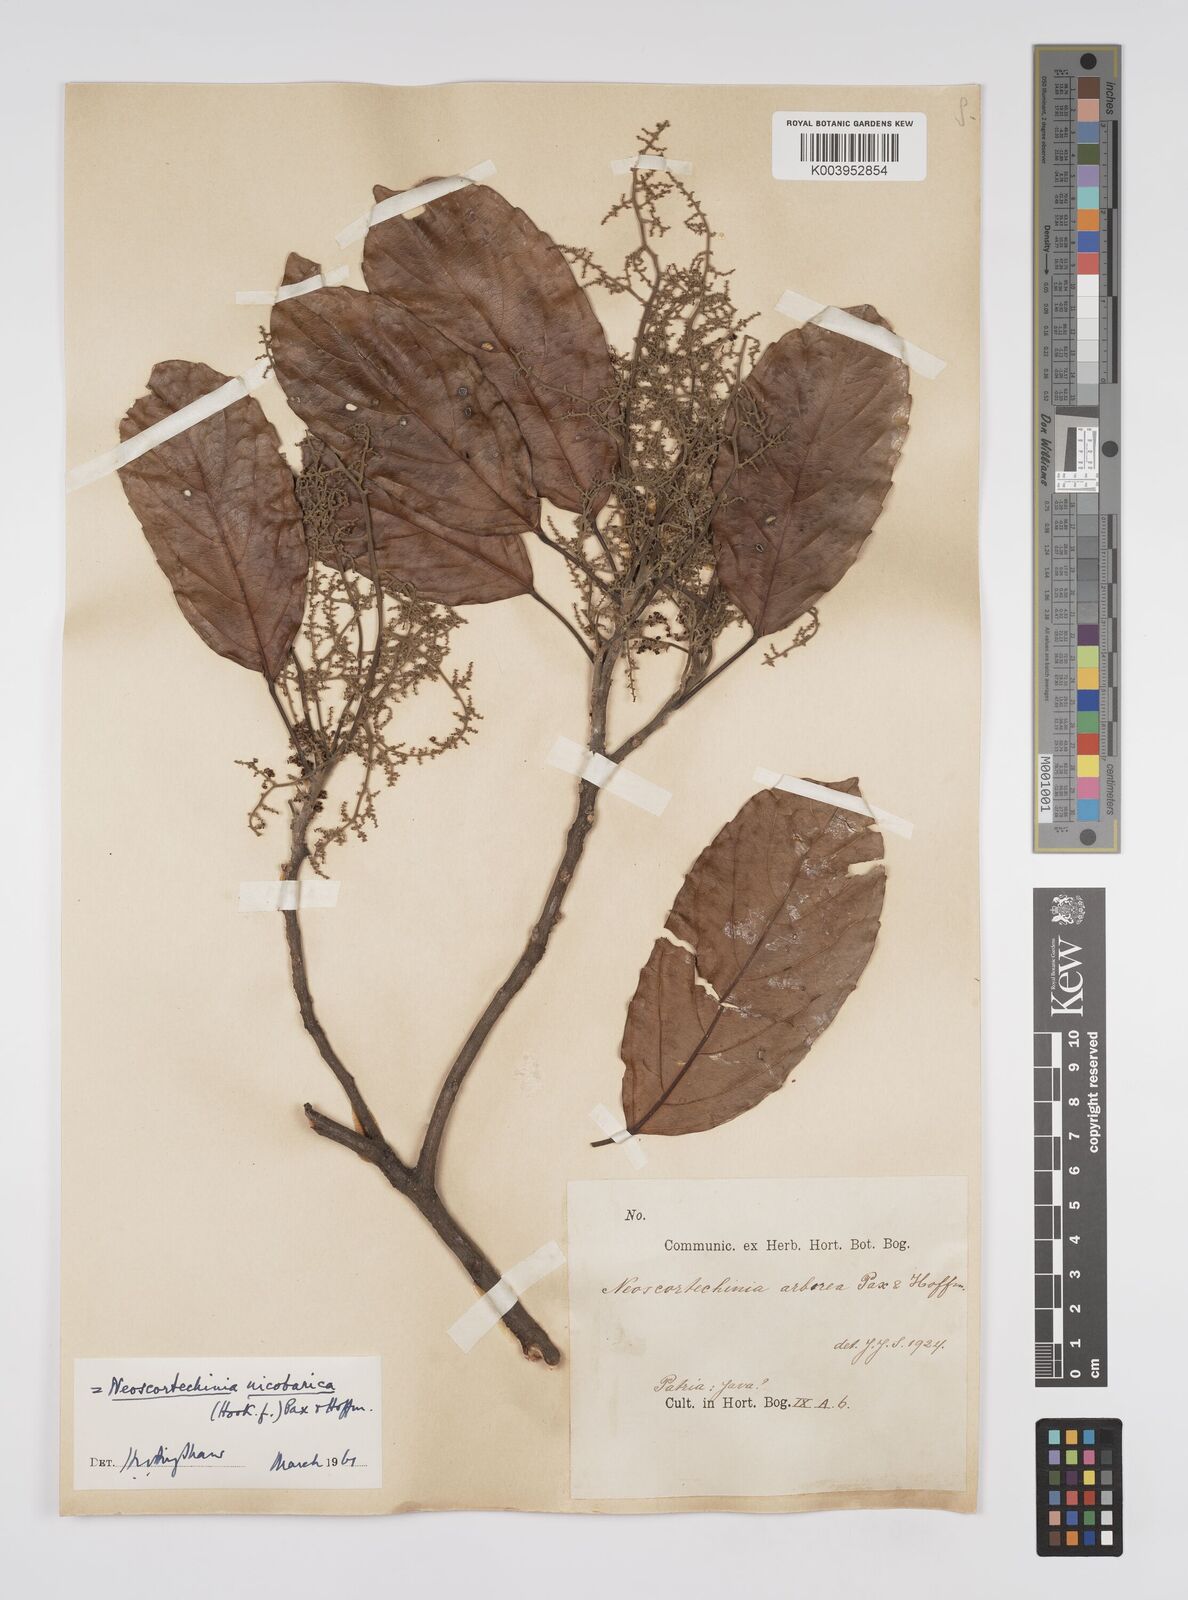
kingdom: Plantae
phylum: Tracheophyta
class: Magnoliopsida
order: Malpighiales
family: Euphorbiaceae
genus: Neoscortechinia
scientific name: Neoscortechinia nicobarica
